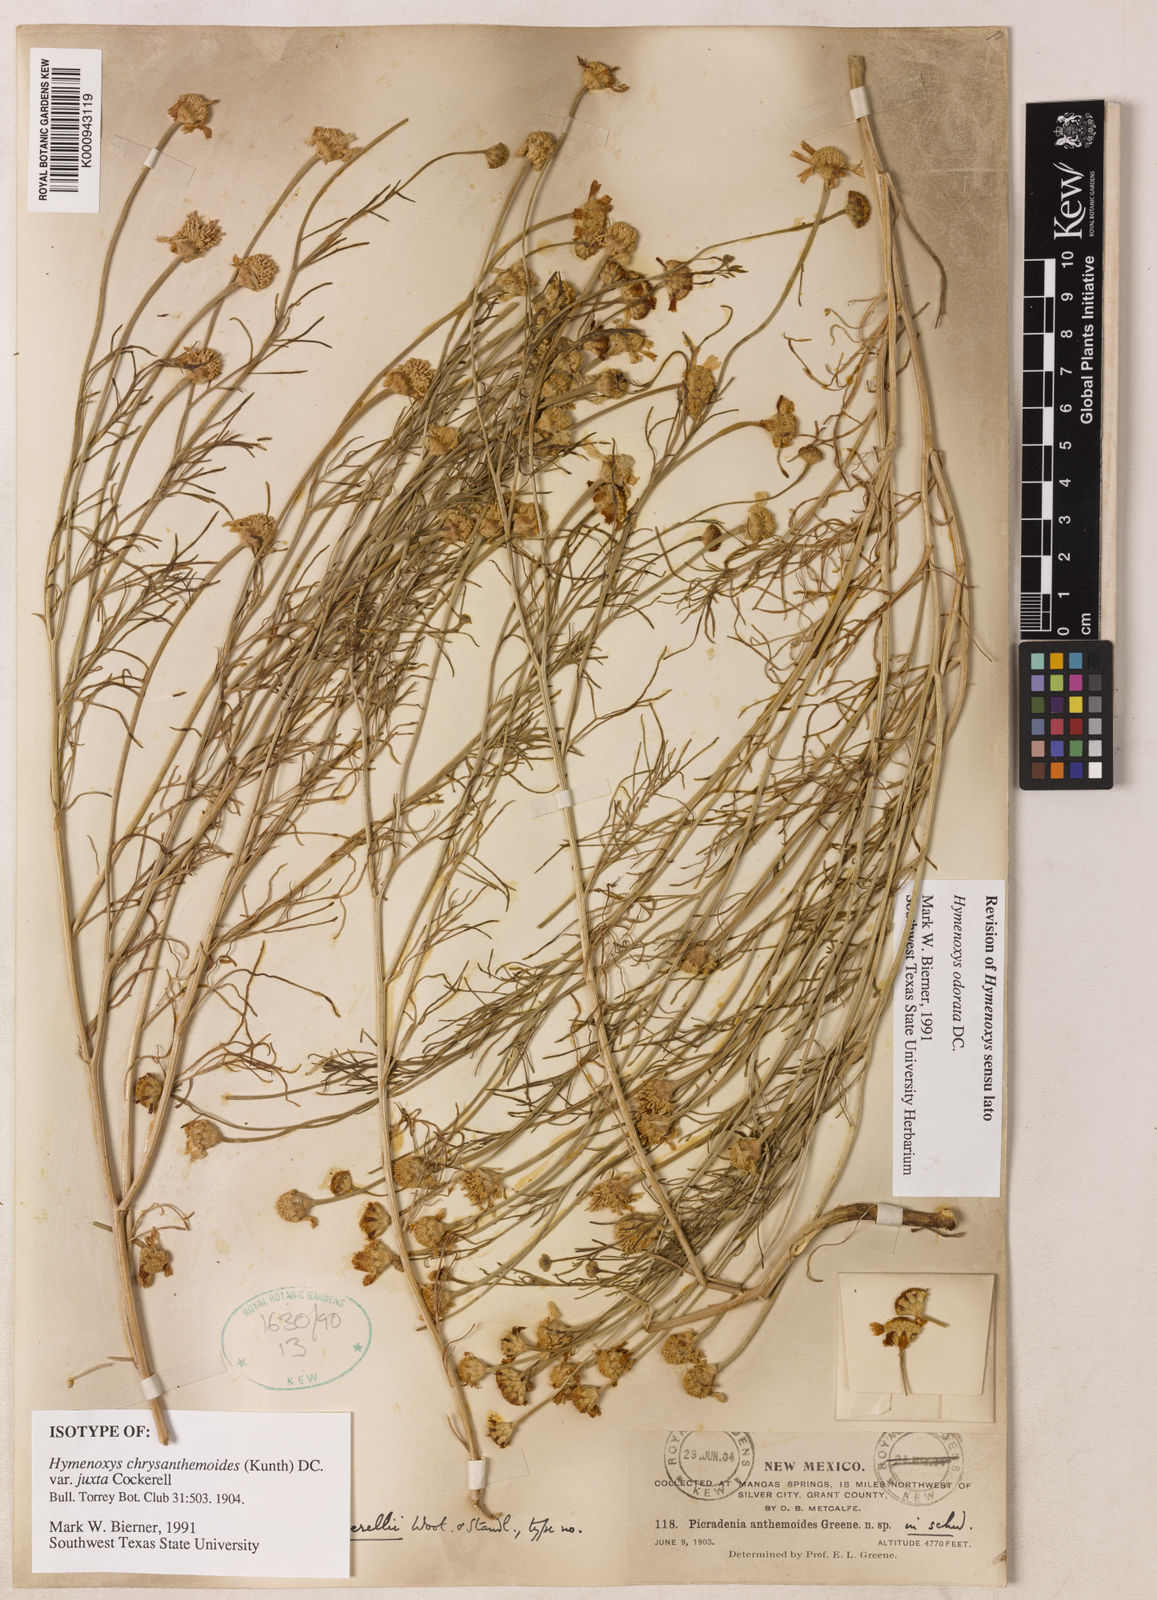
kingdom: Plantae
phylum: Tracheophyta
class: Magnoliopsida
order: Asterales
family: Asteraceae
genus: Hymenoxys
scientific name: Hymenoxys odorata
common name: Bitter rubberweed
